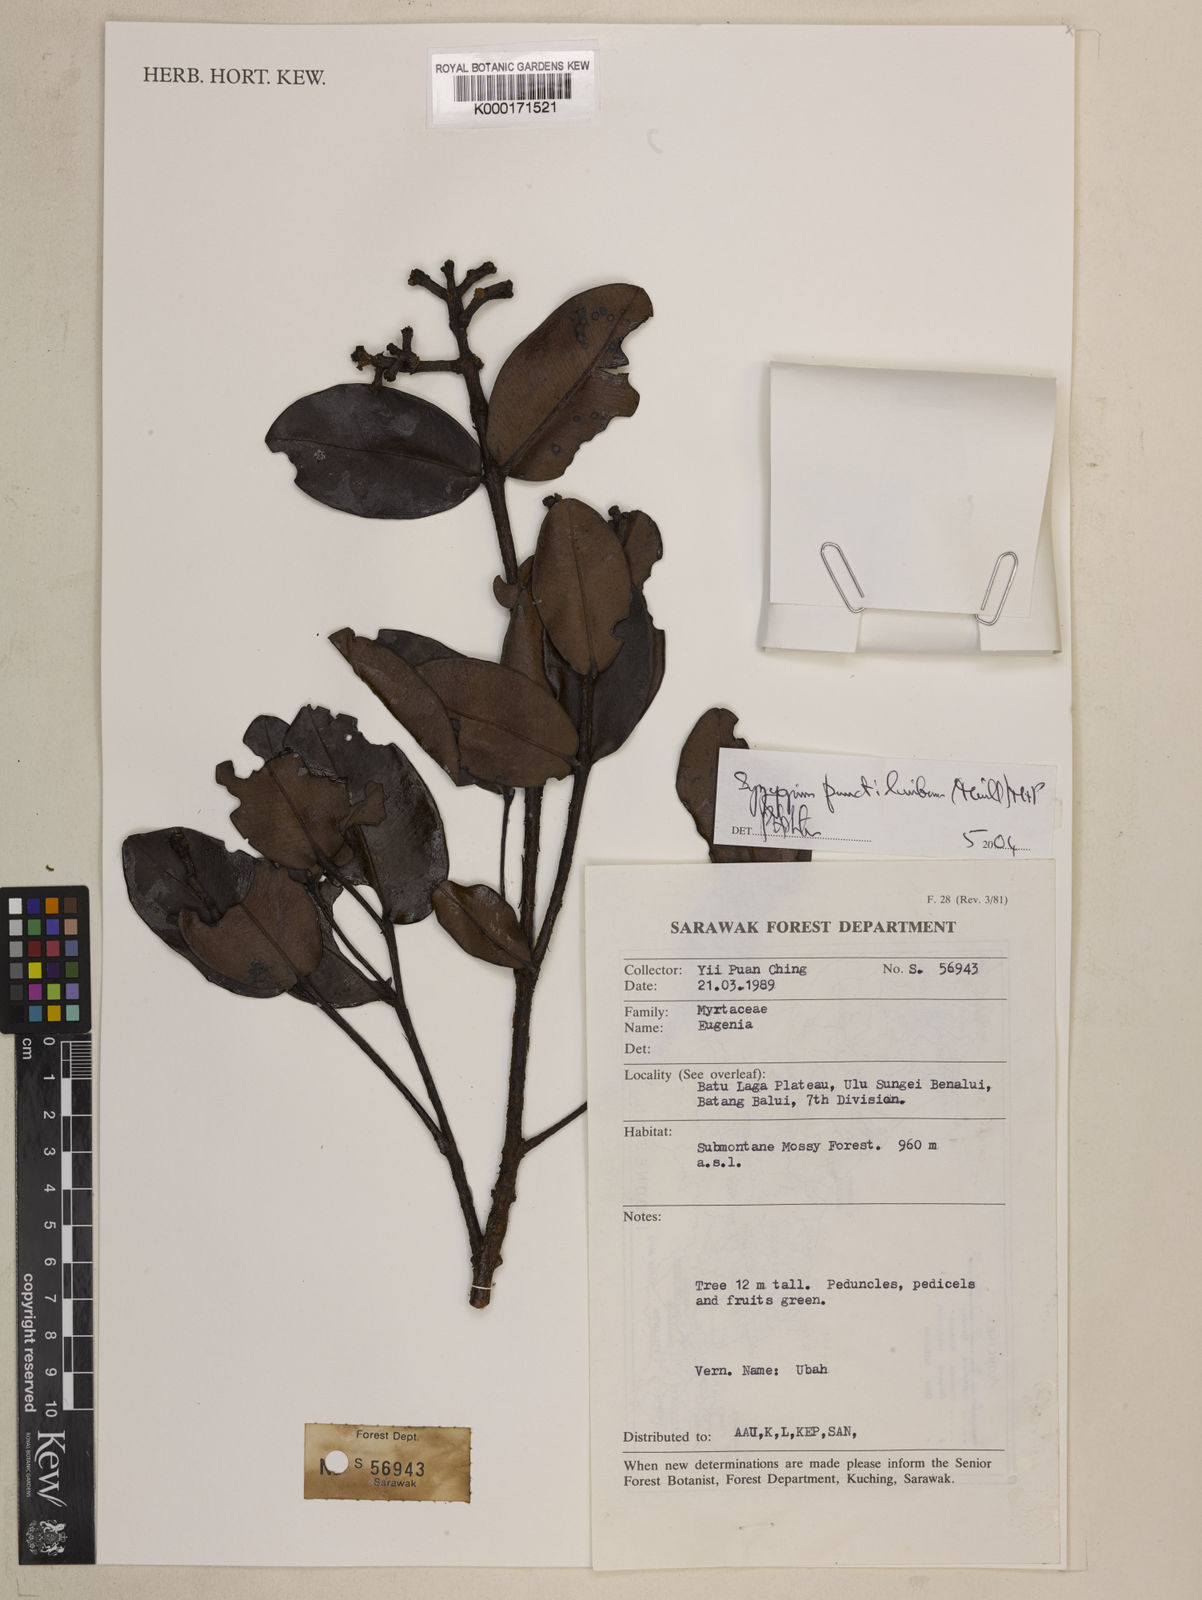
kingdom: Plantae
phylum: Tracheophyta
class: Magnoliopsida
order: Myrtales
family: Myrtaceae
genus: Syzygium
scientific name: Syzygium punctilimbum
